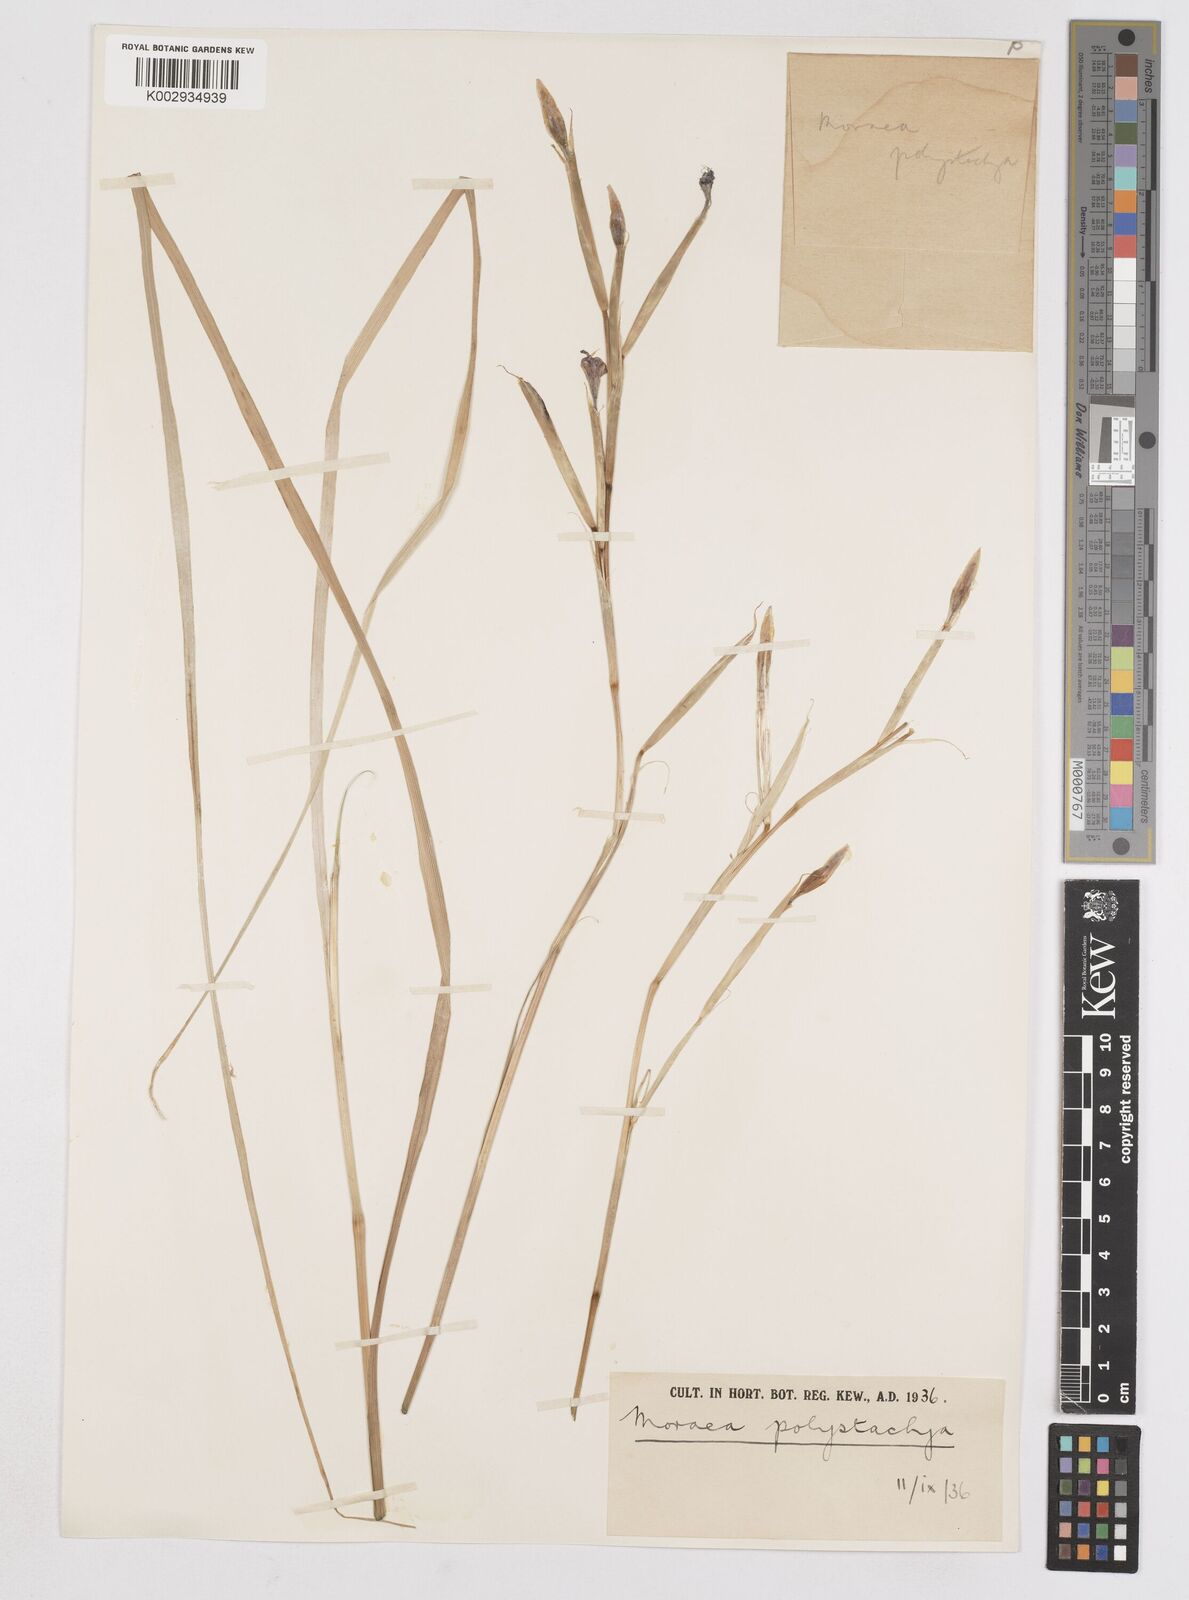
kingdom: Plantae
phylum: Tracheophyta
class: Liliopsida
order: Asparagales
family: Iridaceae
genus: Moraea
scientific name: Moraea polystachya
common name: Blue-tulip
